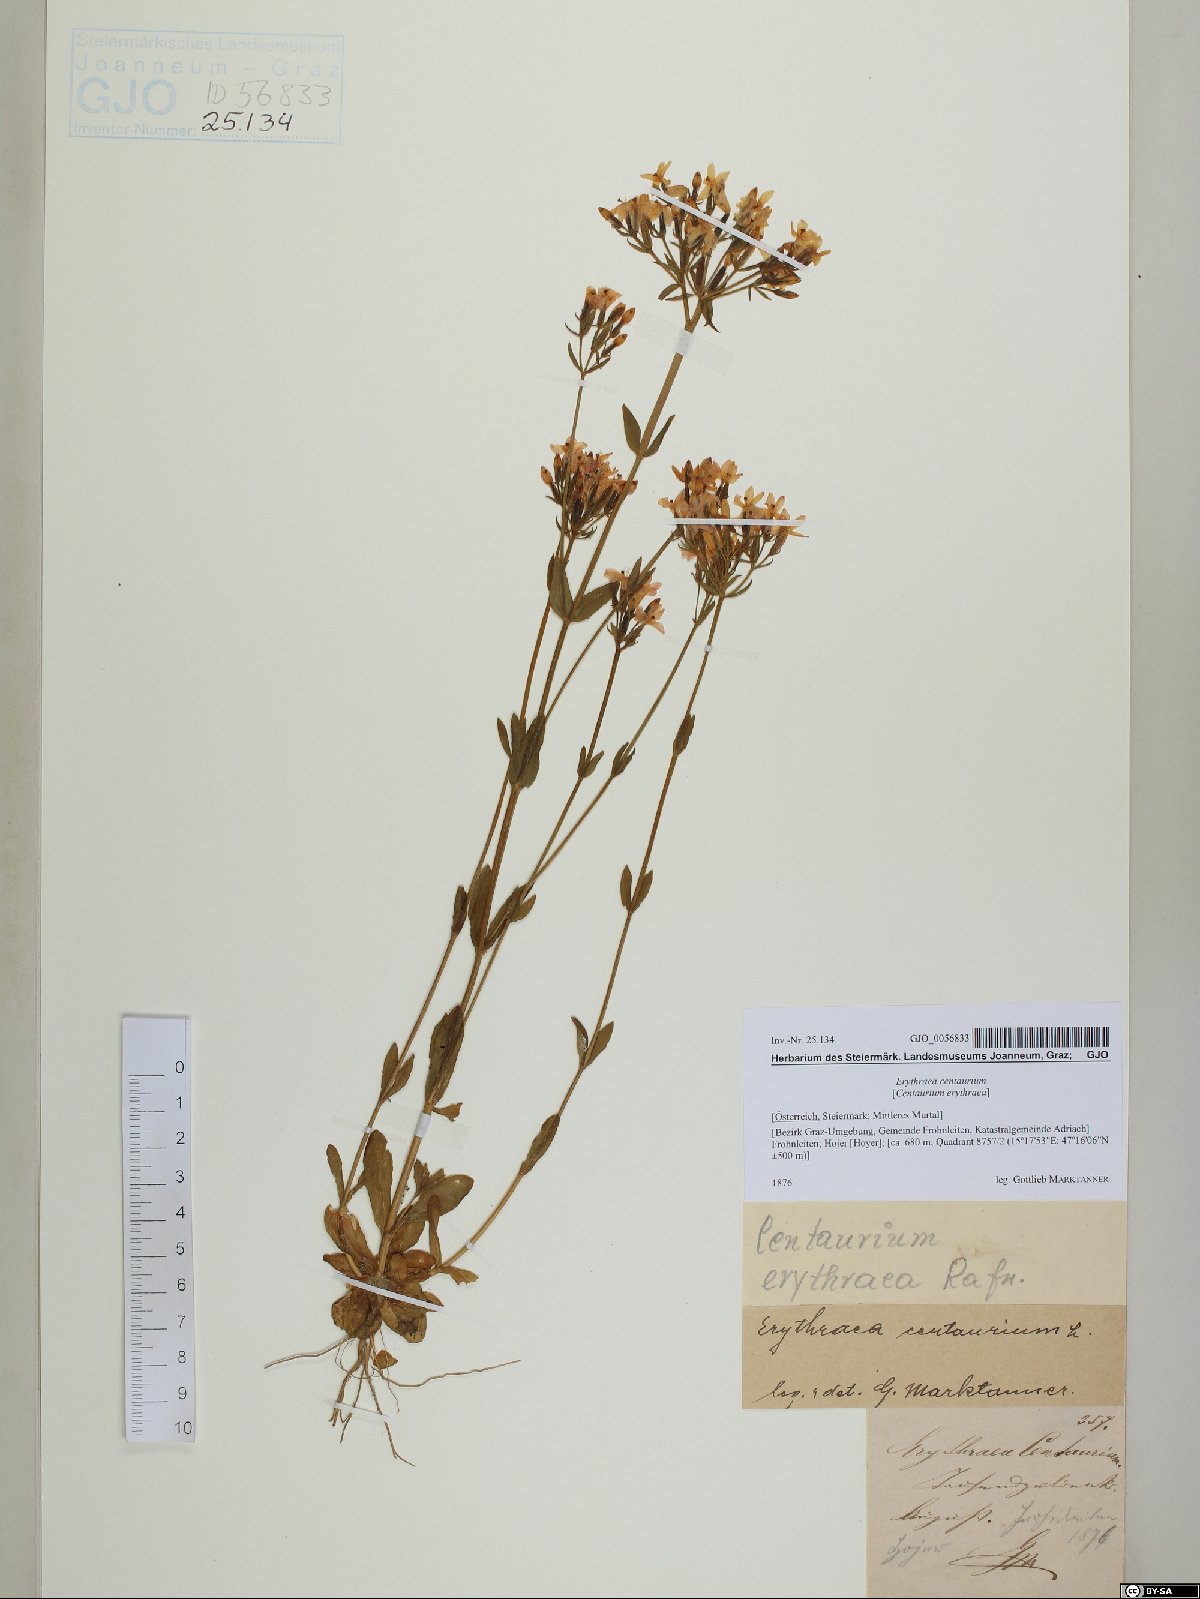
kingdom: Plantae
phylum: Tracheophyta
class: Magnoliopsida
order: Gentianales
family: Gentianaceae
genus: Centaurium
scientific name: Centaurium erythraea
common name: Common centaury
